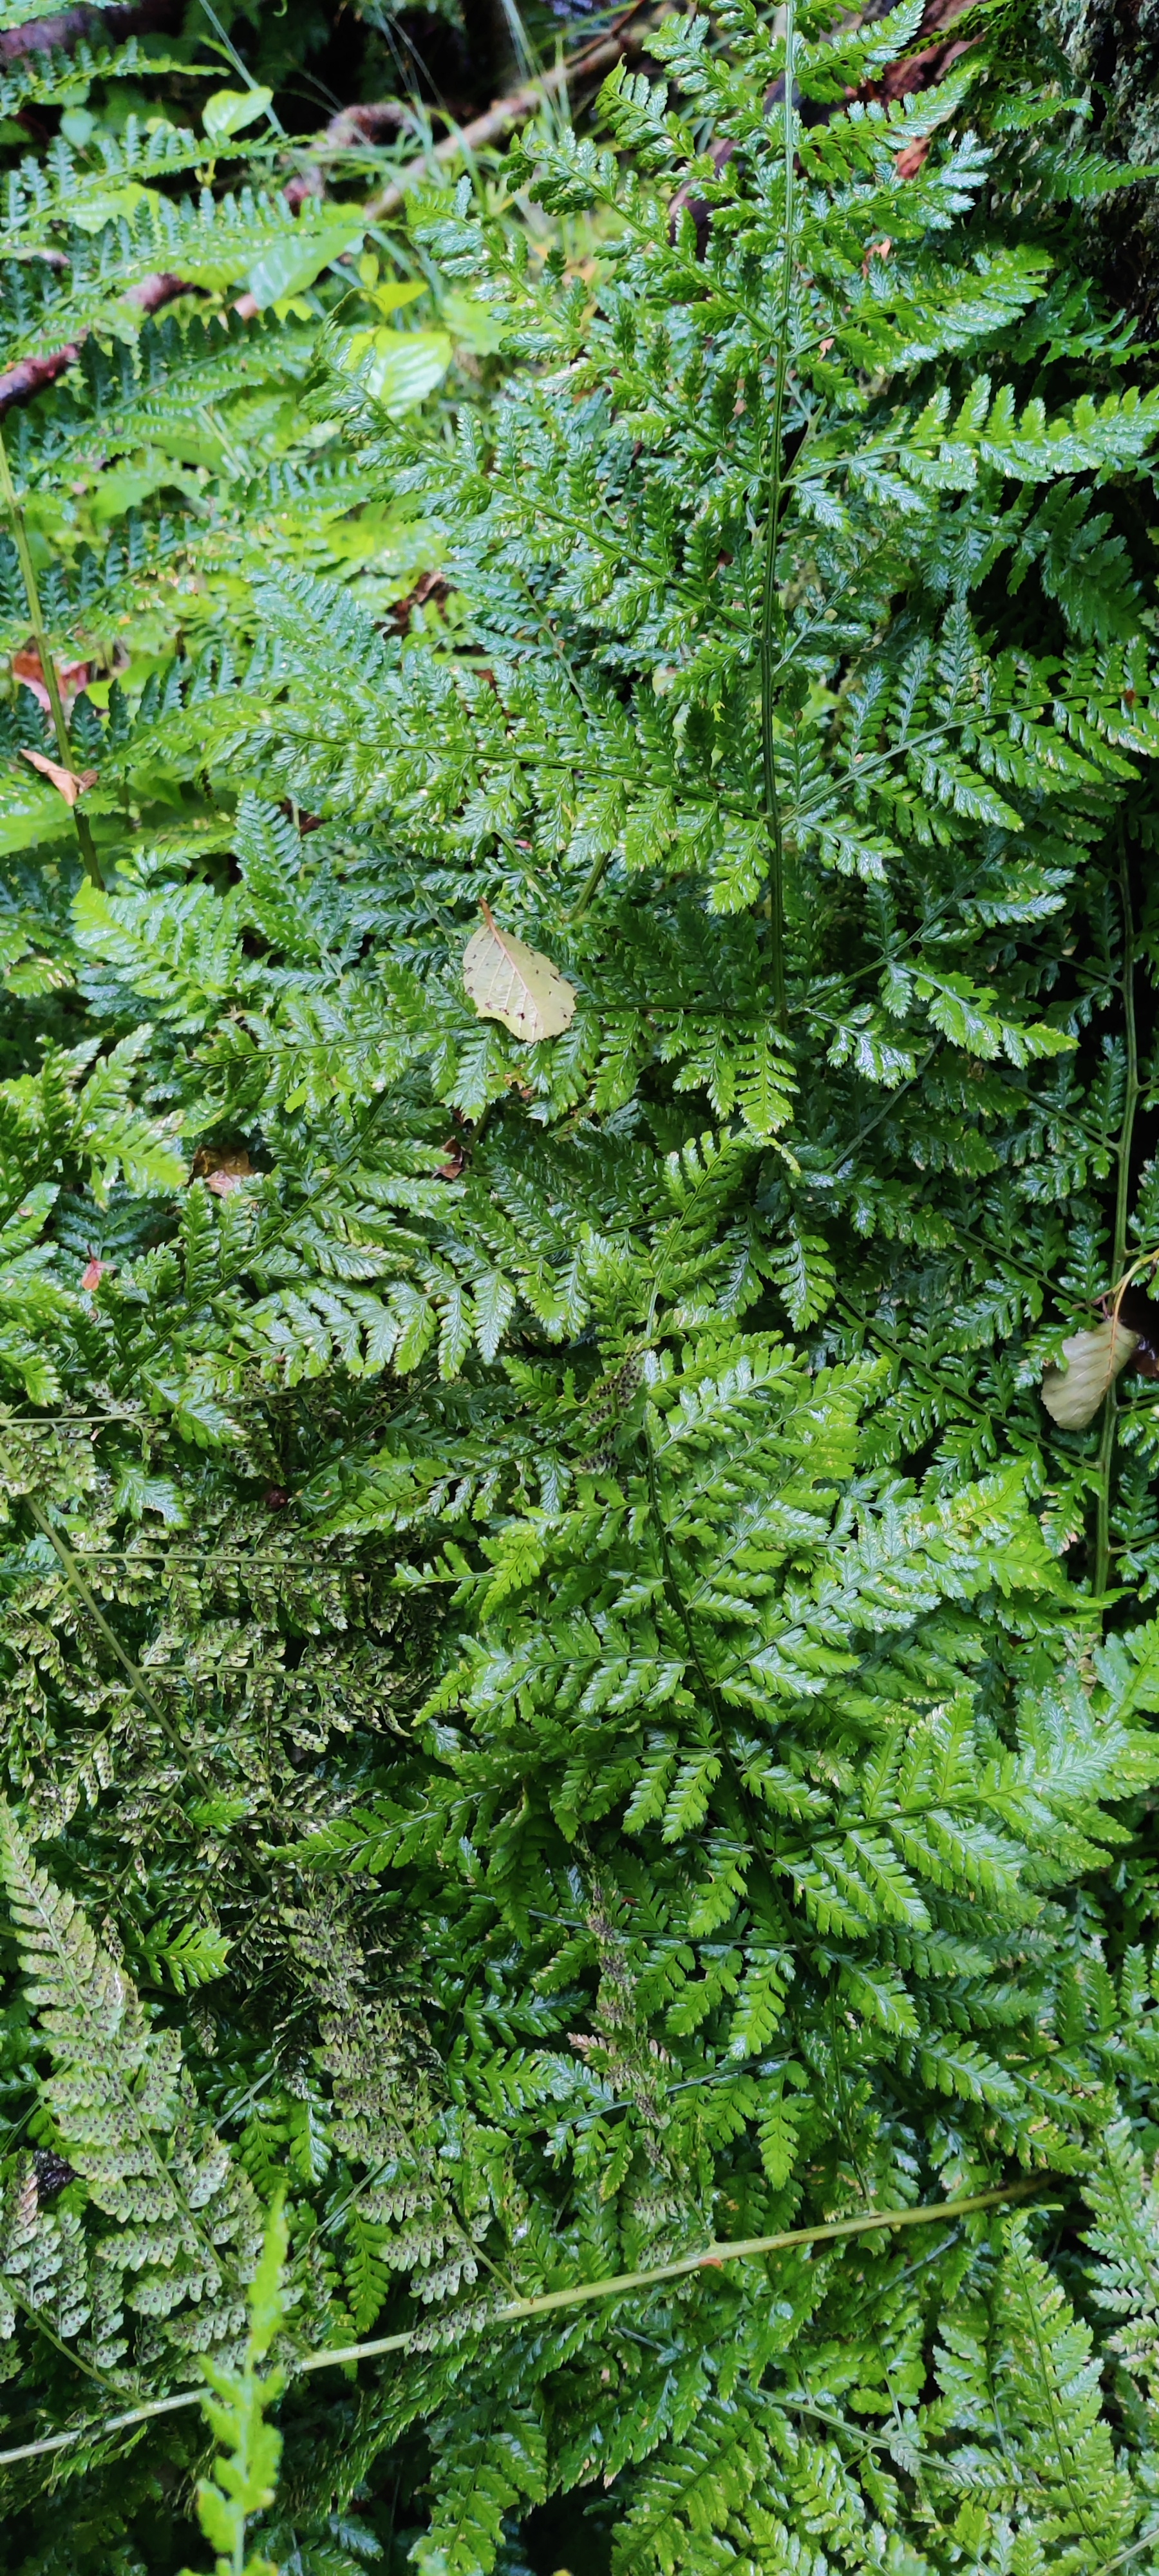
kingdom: Plantae
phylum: Tracheophyta
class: Polypodiopsida
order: Polypodiales
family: Dryopteridaceae
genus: Dryopteris
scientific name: Dryopteris dilatata
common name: Bredbladet mangeløv
